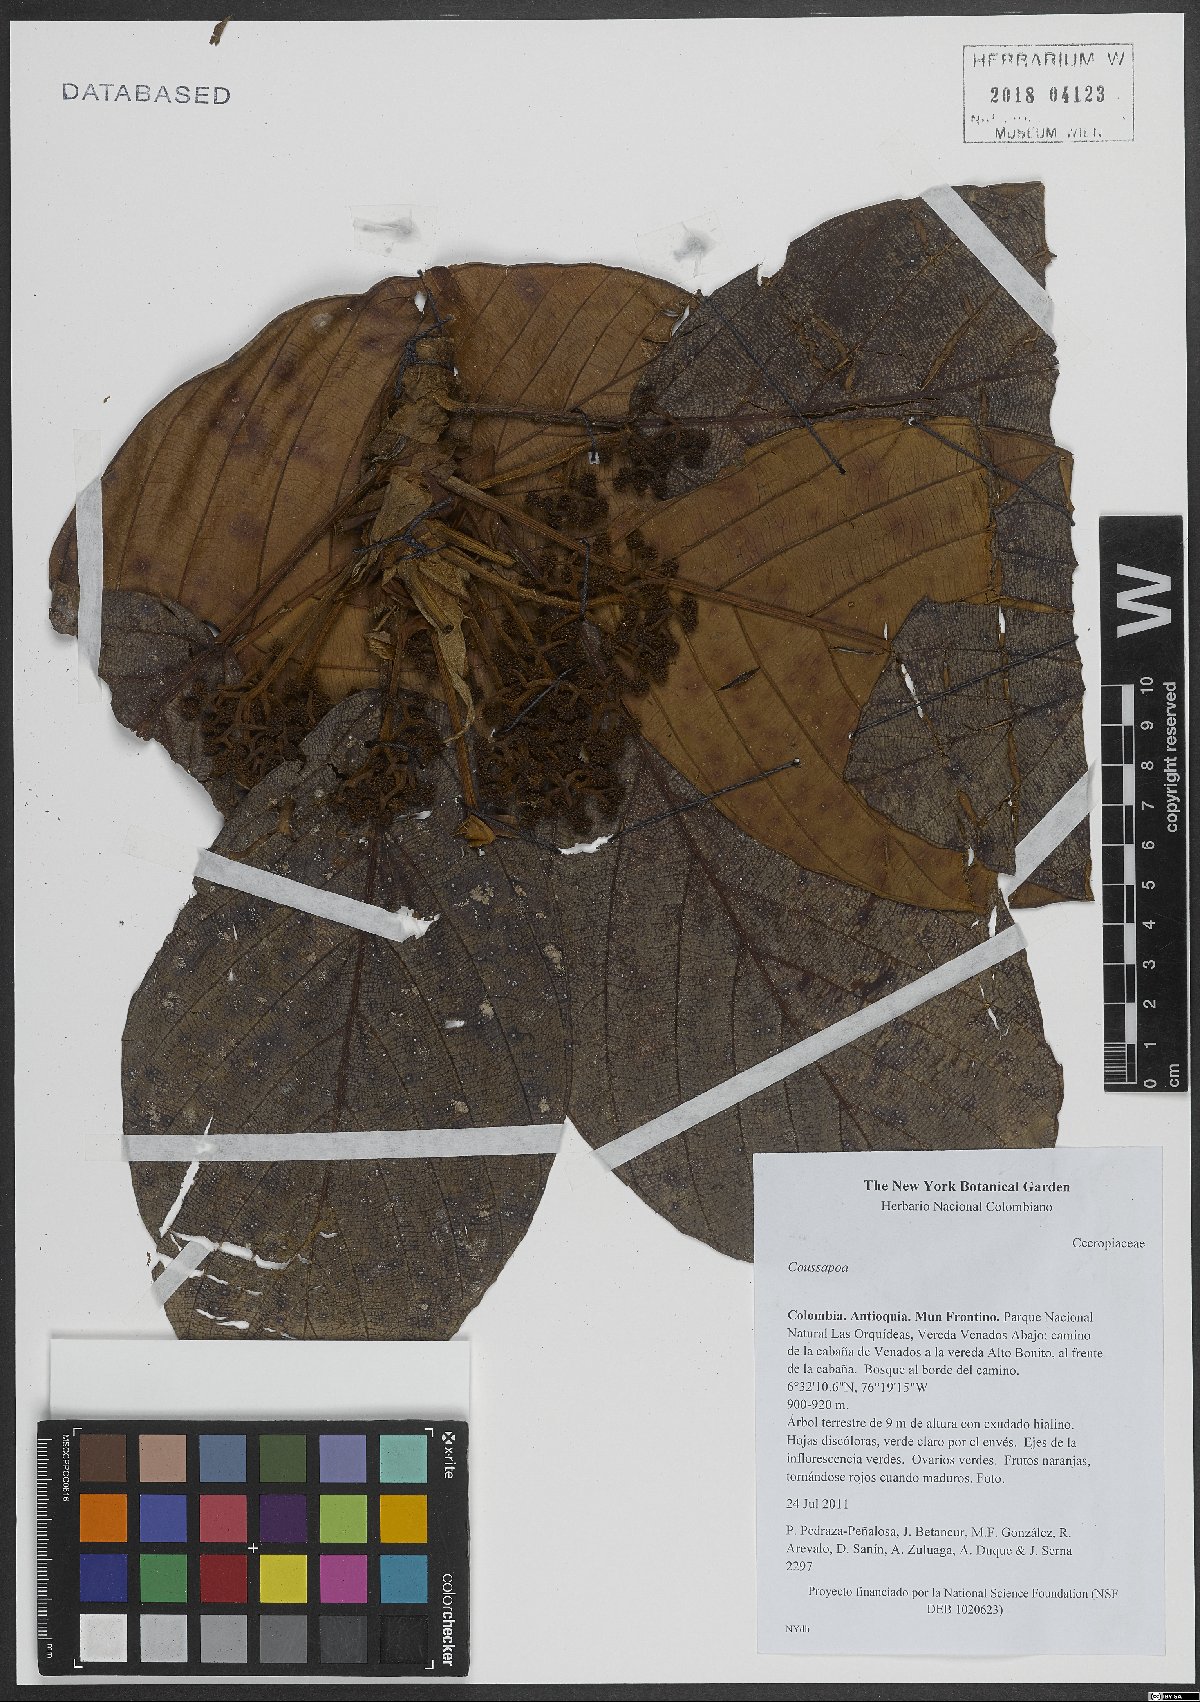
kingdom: Plantae
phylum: Tracheophyta
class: Magnoliopsida
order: Rosales
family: Urticaceae
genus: Coussapoa
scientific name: Coussapoa
